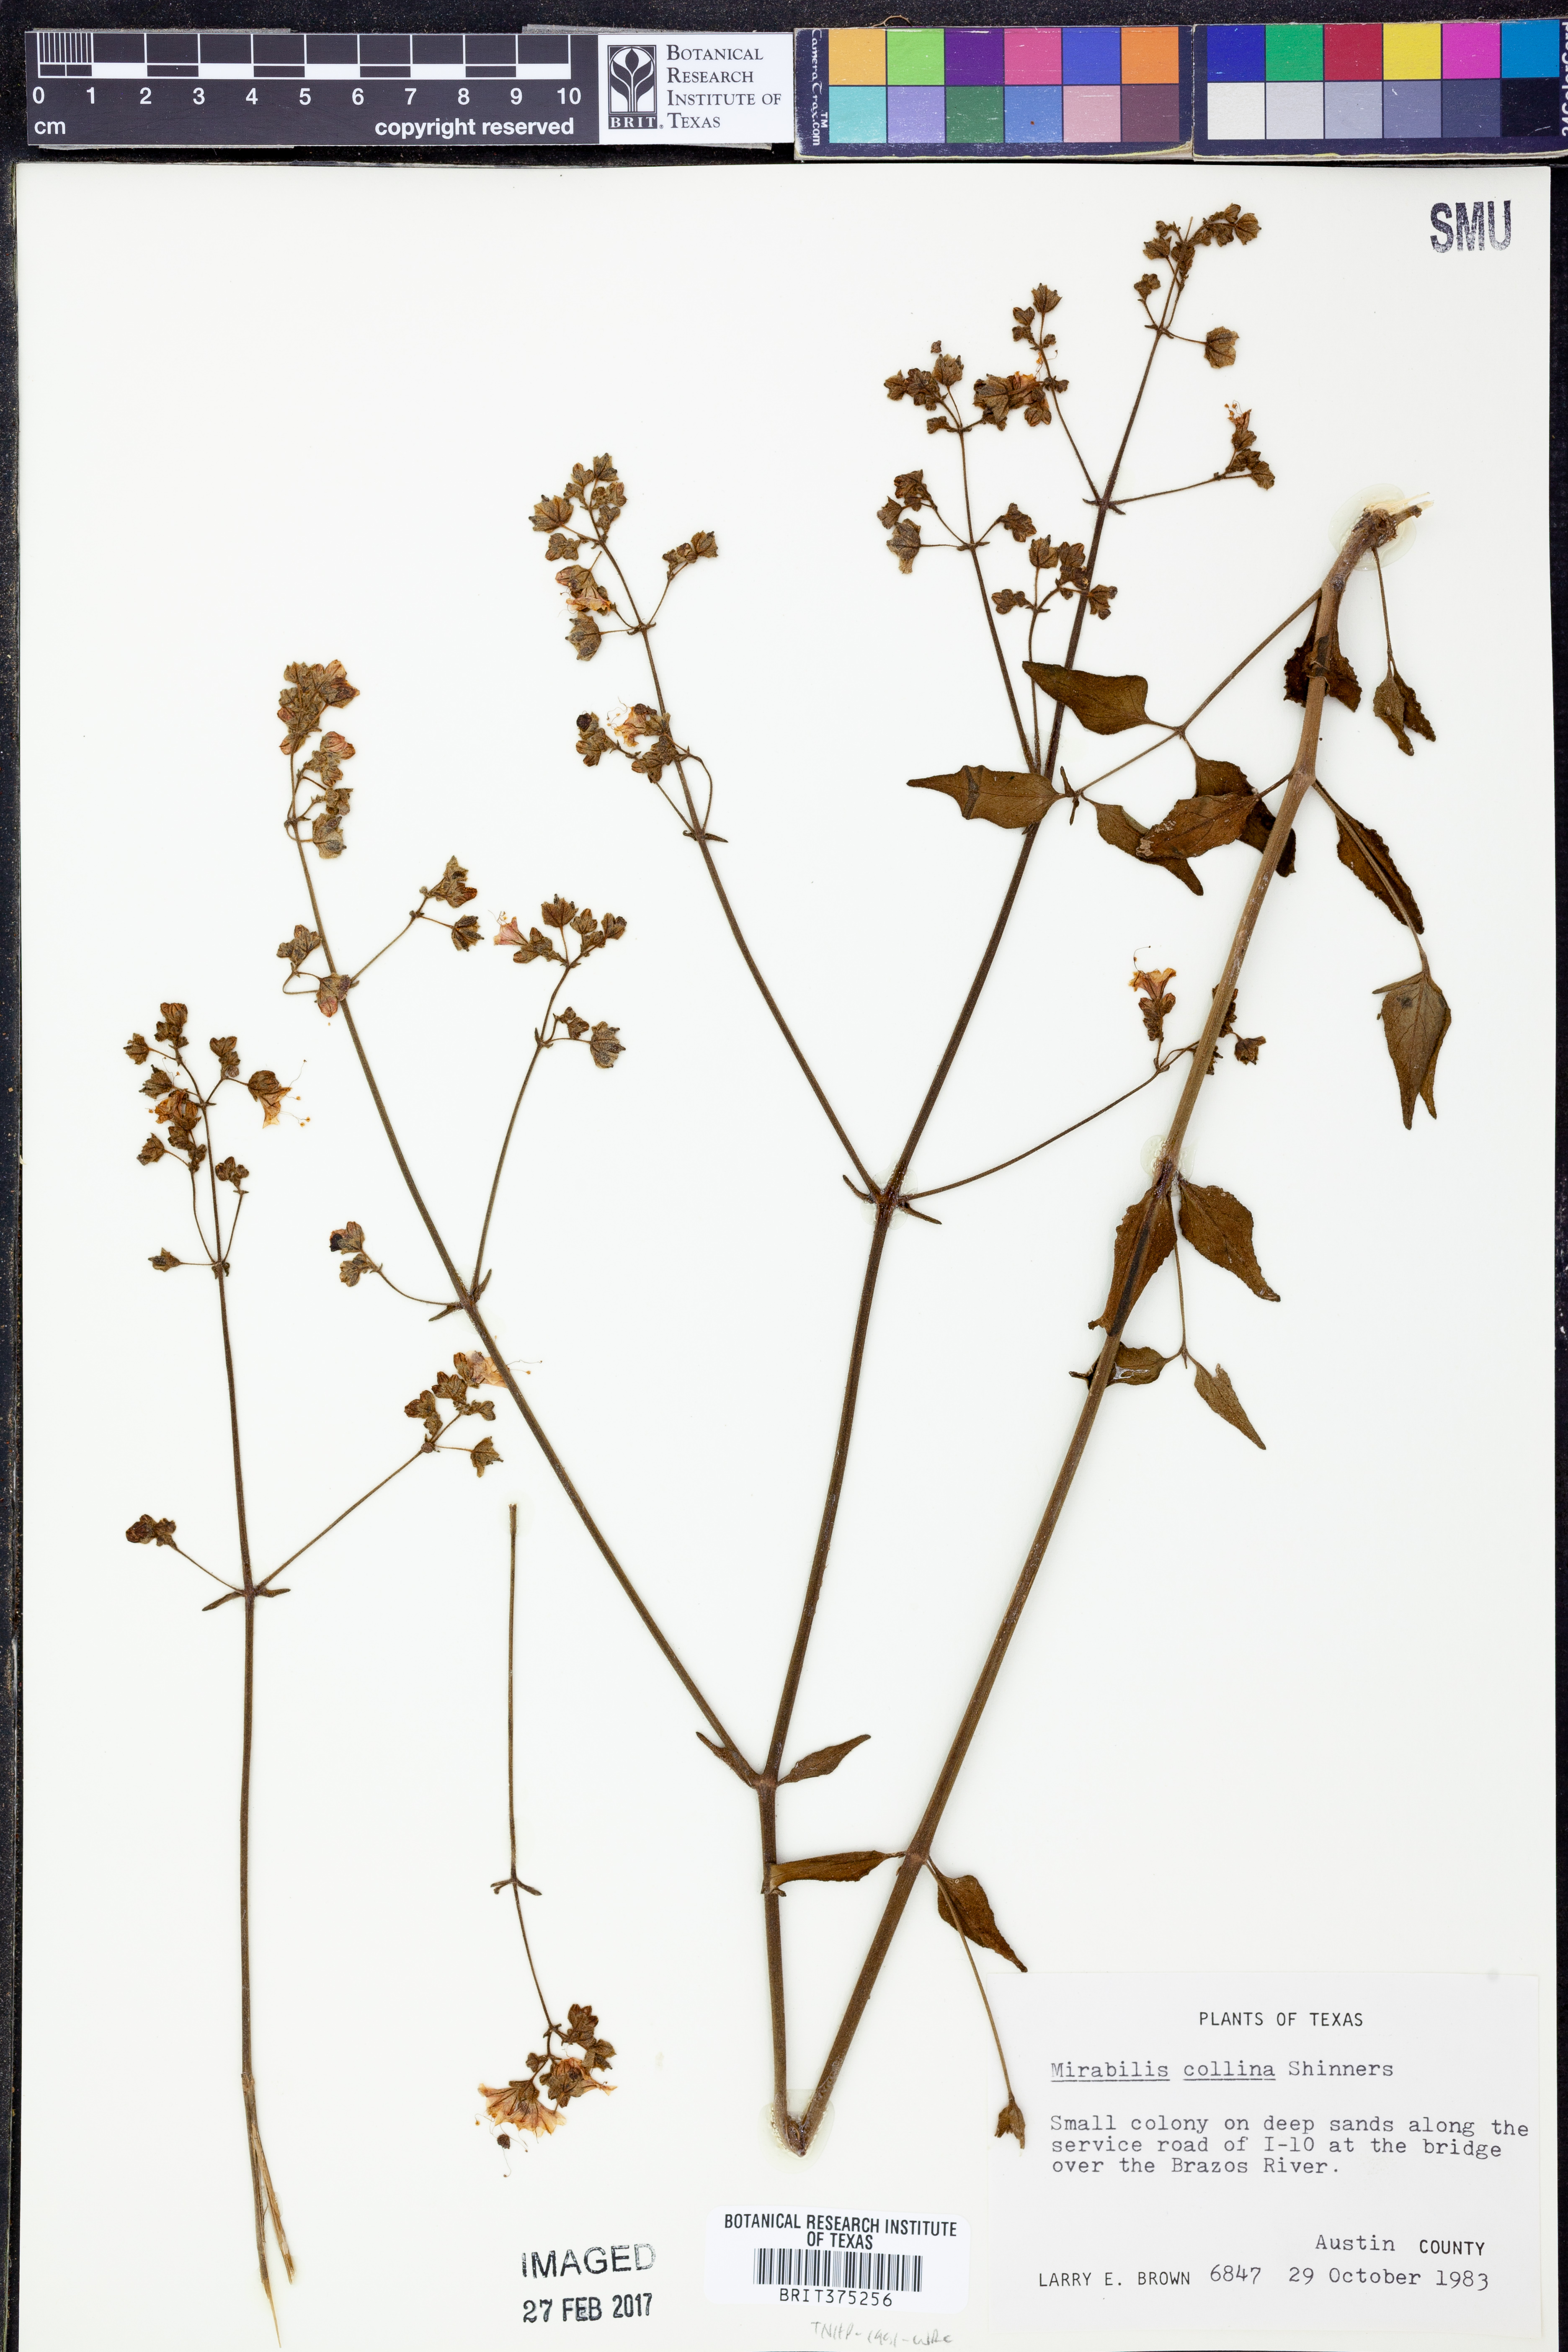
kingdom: Plantae
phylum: Tracheophyta
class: Magnoliopsida
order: Caryophyllales
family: Nyctaginaceae
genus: Mirabilis
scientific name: Mirabilis collina
